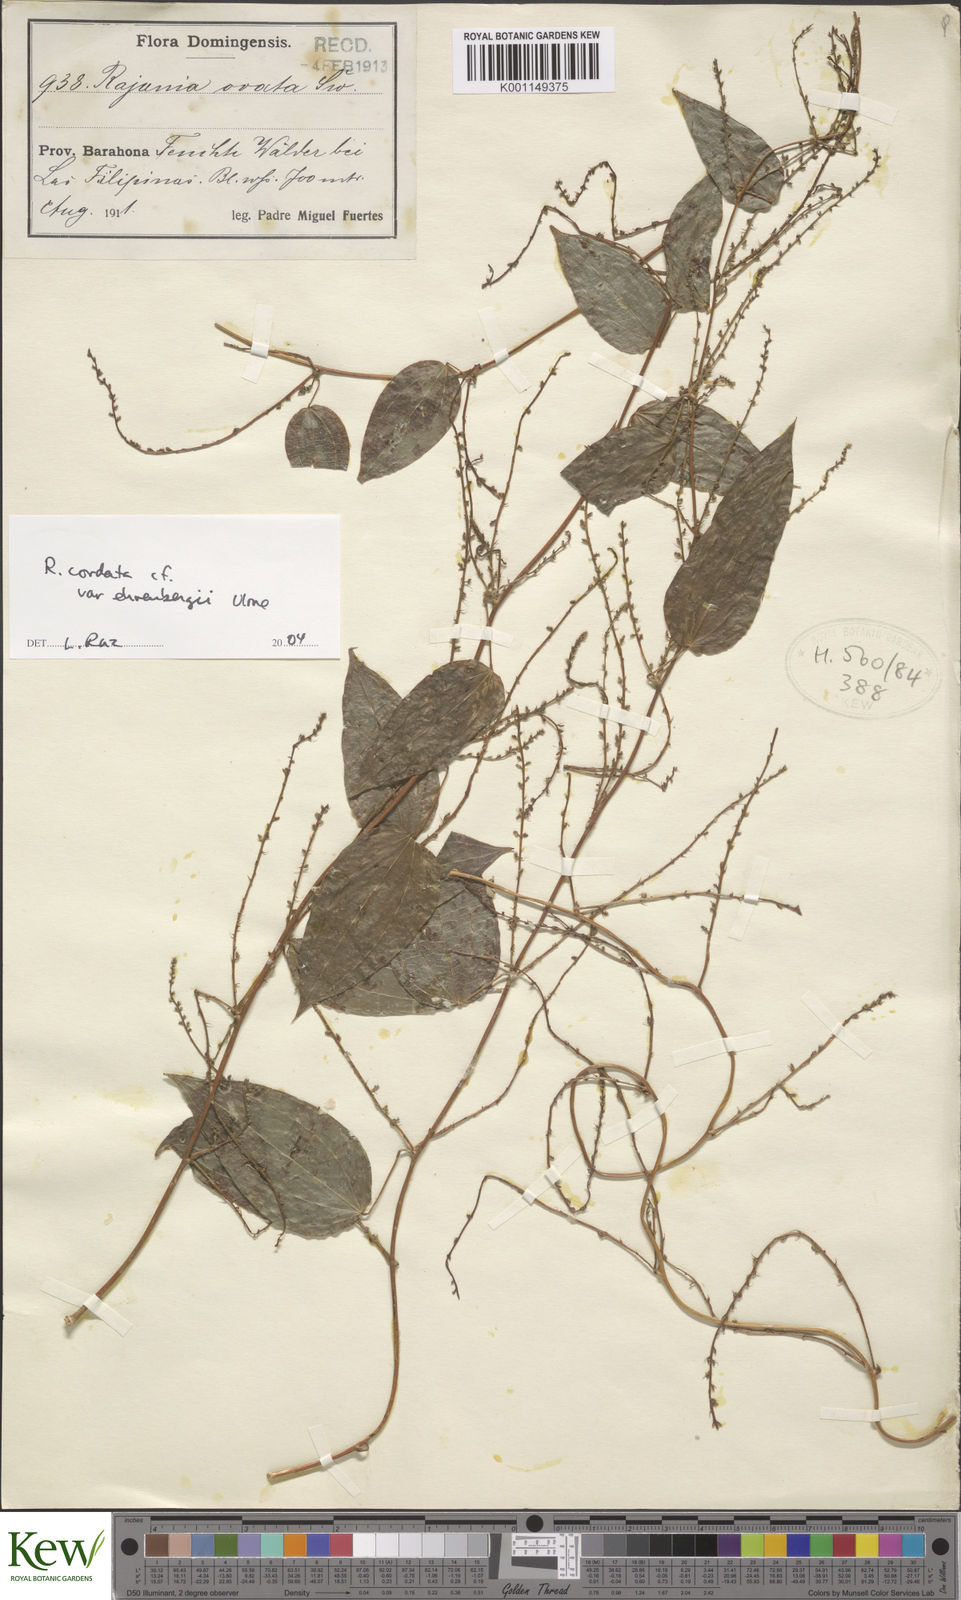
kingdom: Plantae
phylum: Tracheophyta
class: Liliopsida
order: Dioscoreales
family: Dioscoreaceae
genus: Dioscorea
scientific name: Dioscorea
